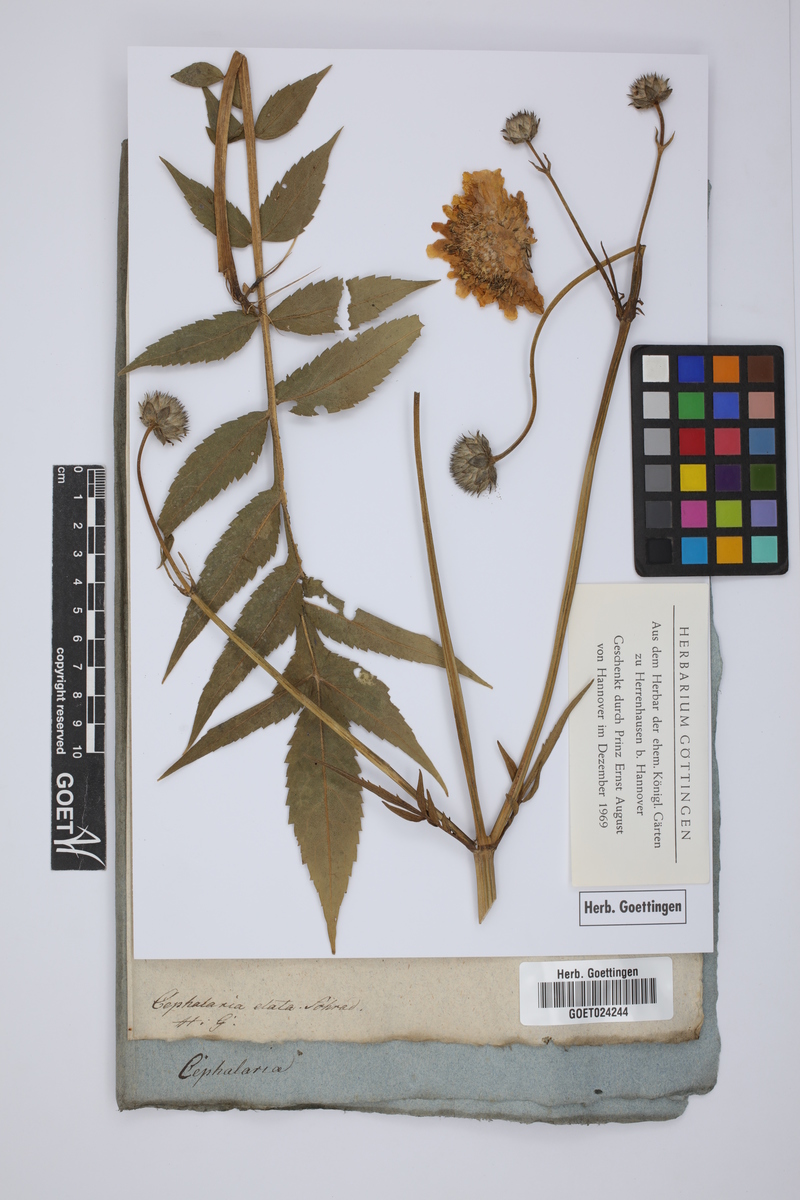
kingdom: Plantae
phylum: Tracheophyta
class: Magnoliopsida
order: Dipsacales
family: Caprifoliaceae
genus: Cephalaria
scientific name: Cephalaria gigantea
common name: Tatarian cephalaria
